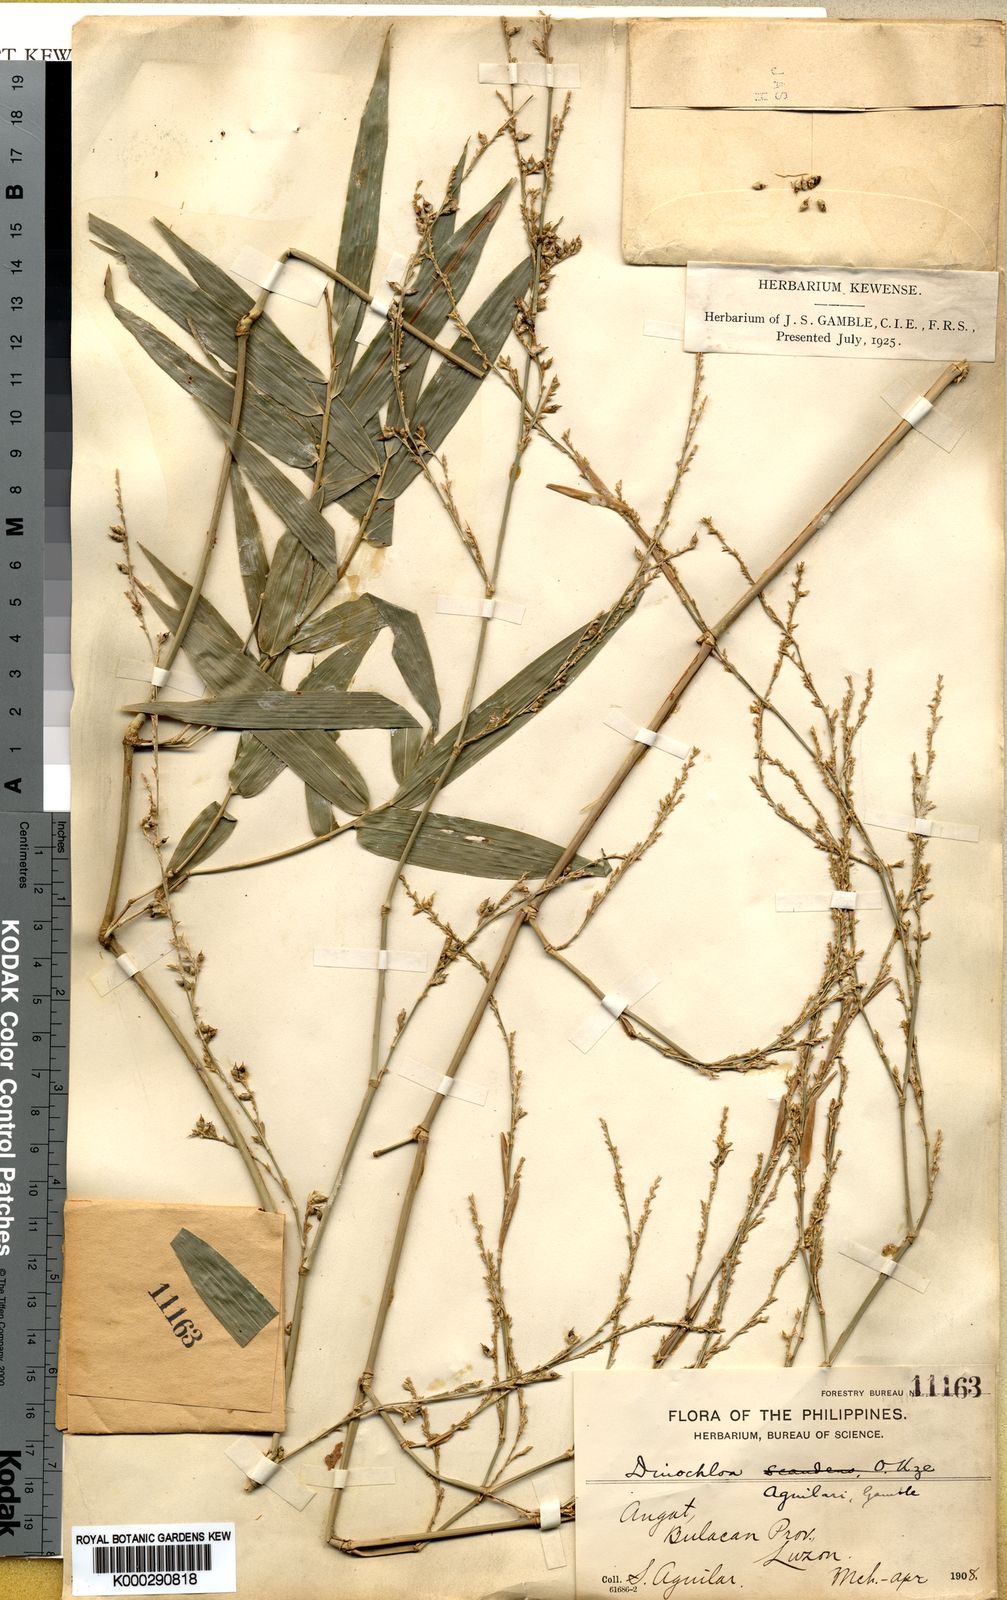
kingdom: Plantae
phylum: Tracheophyta
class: Liliopsida
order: Poales
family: Poaceae
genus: Dinochloa
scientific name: Dinochloa luconiae
